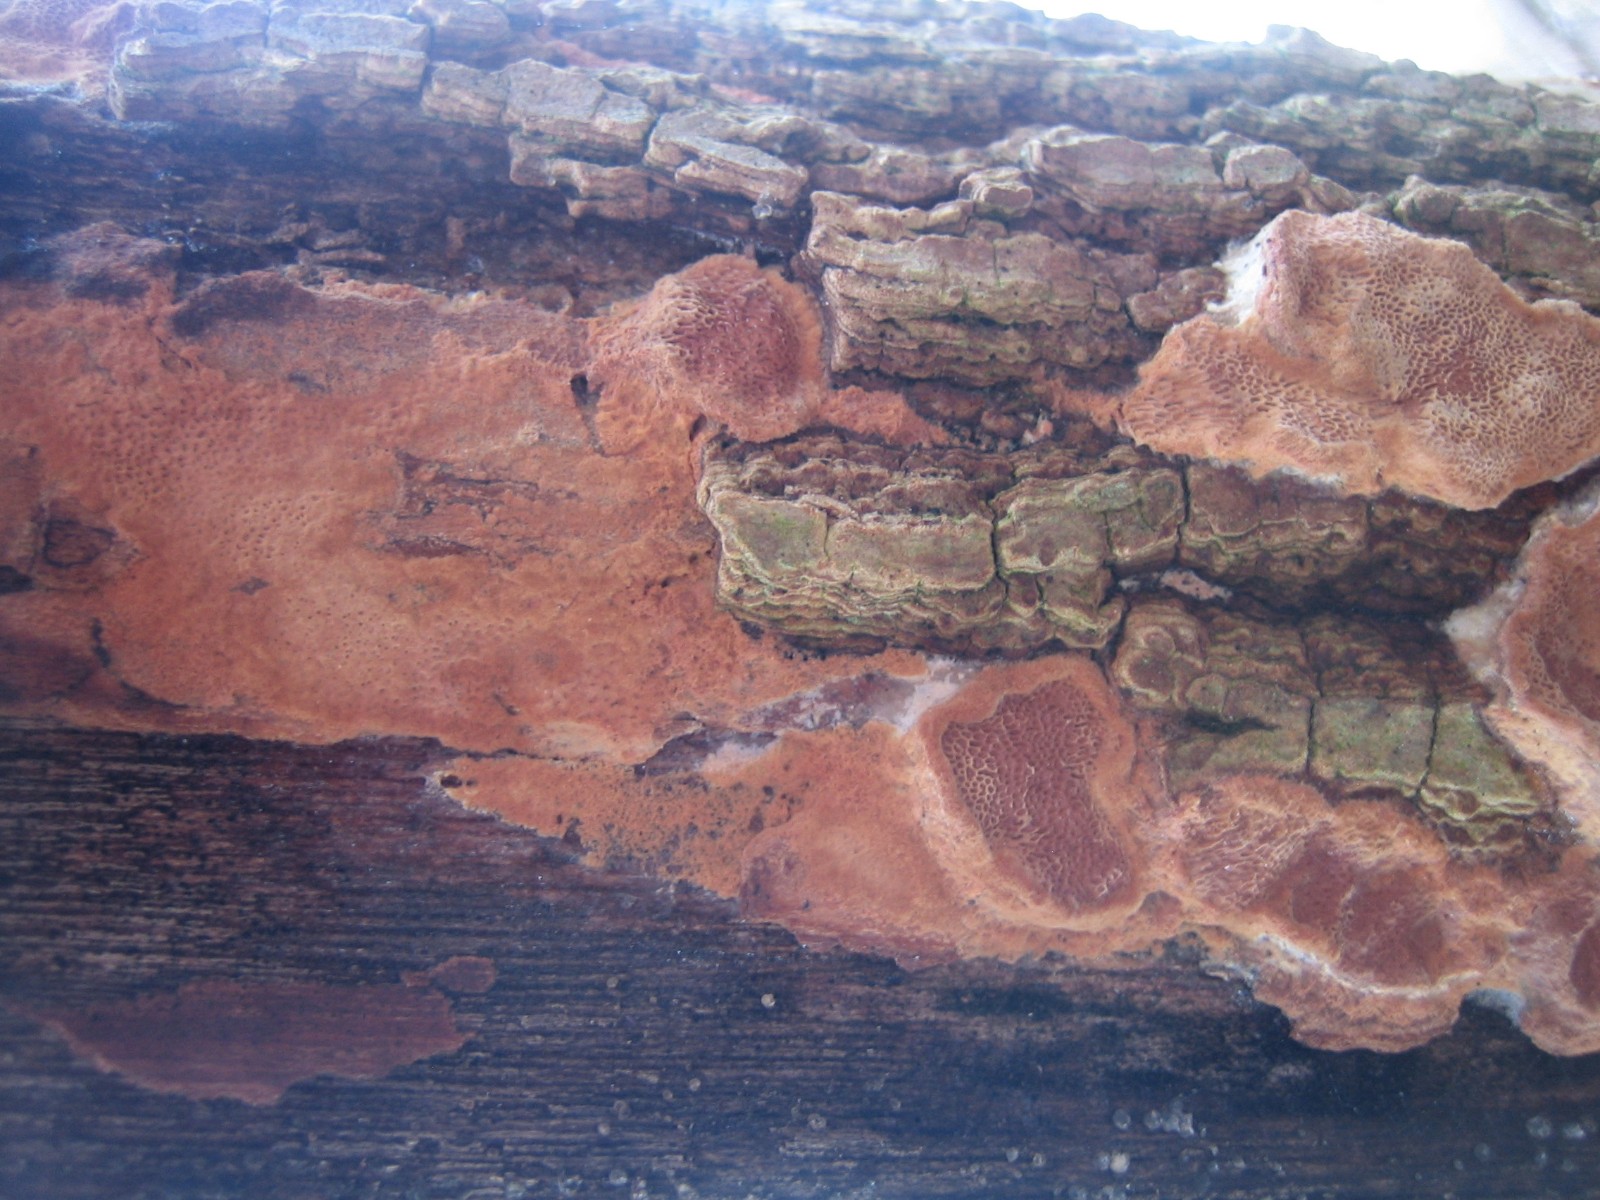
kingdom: Fungi
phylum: Basidiomycota
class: Agaricomycetes
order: Polyporales
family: Phanerochaetaceae
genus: Hapalopilus
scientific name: Hapalopilus rutilans
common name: rødlig okkerporesvamp
